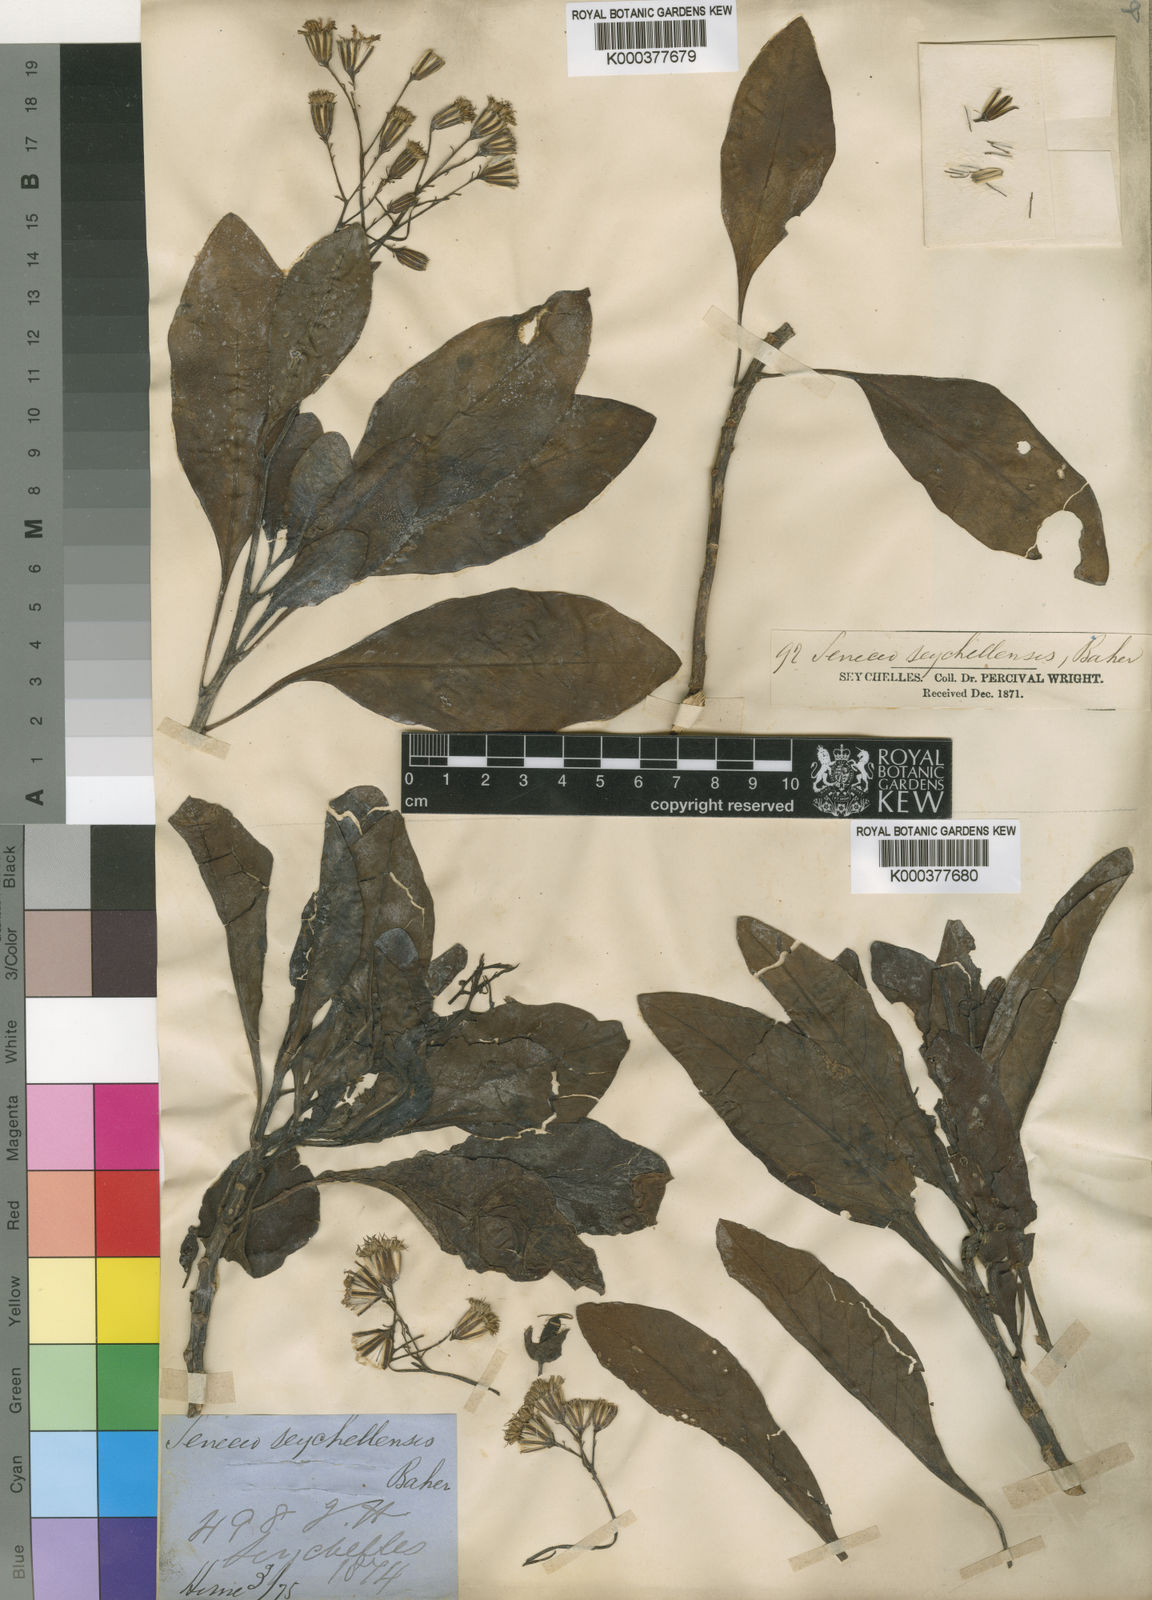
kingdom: Plantae
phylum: Tracheophyta
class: Magnoliopsida
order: Asterales
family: Asteraceae
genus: Gynura
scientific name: Gynura sechellensis
